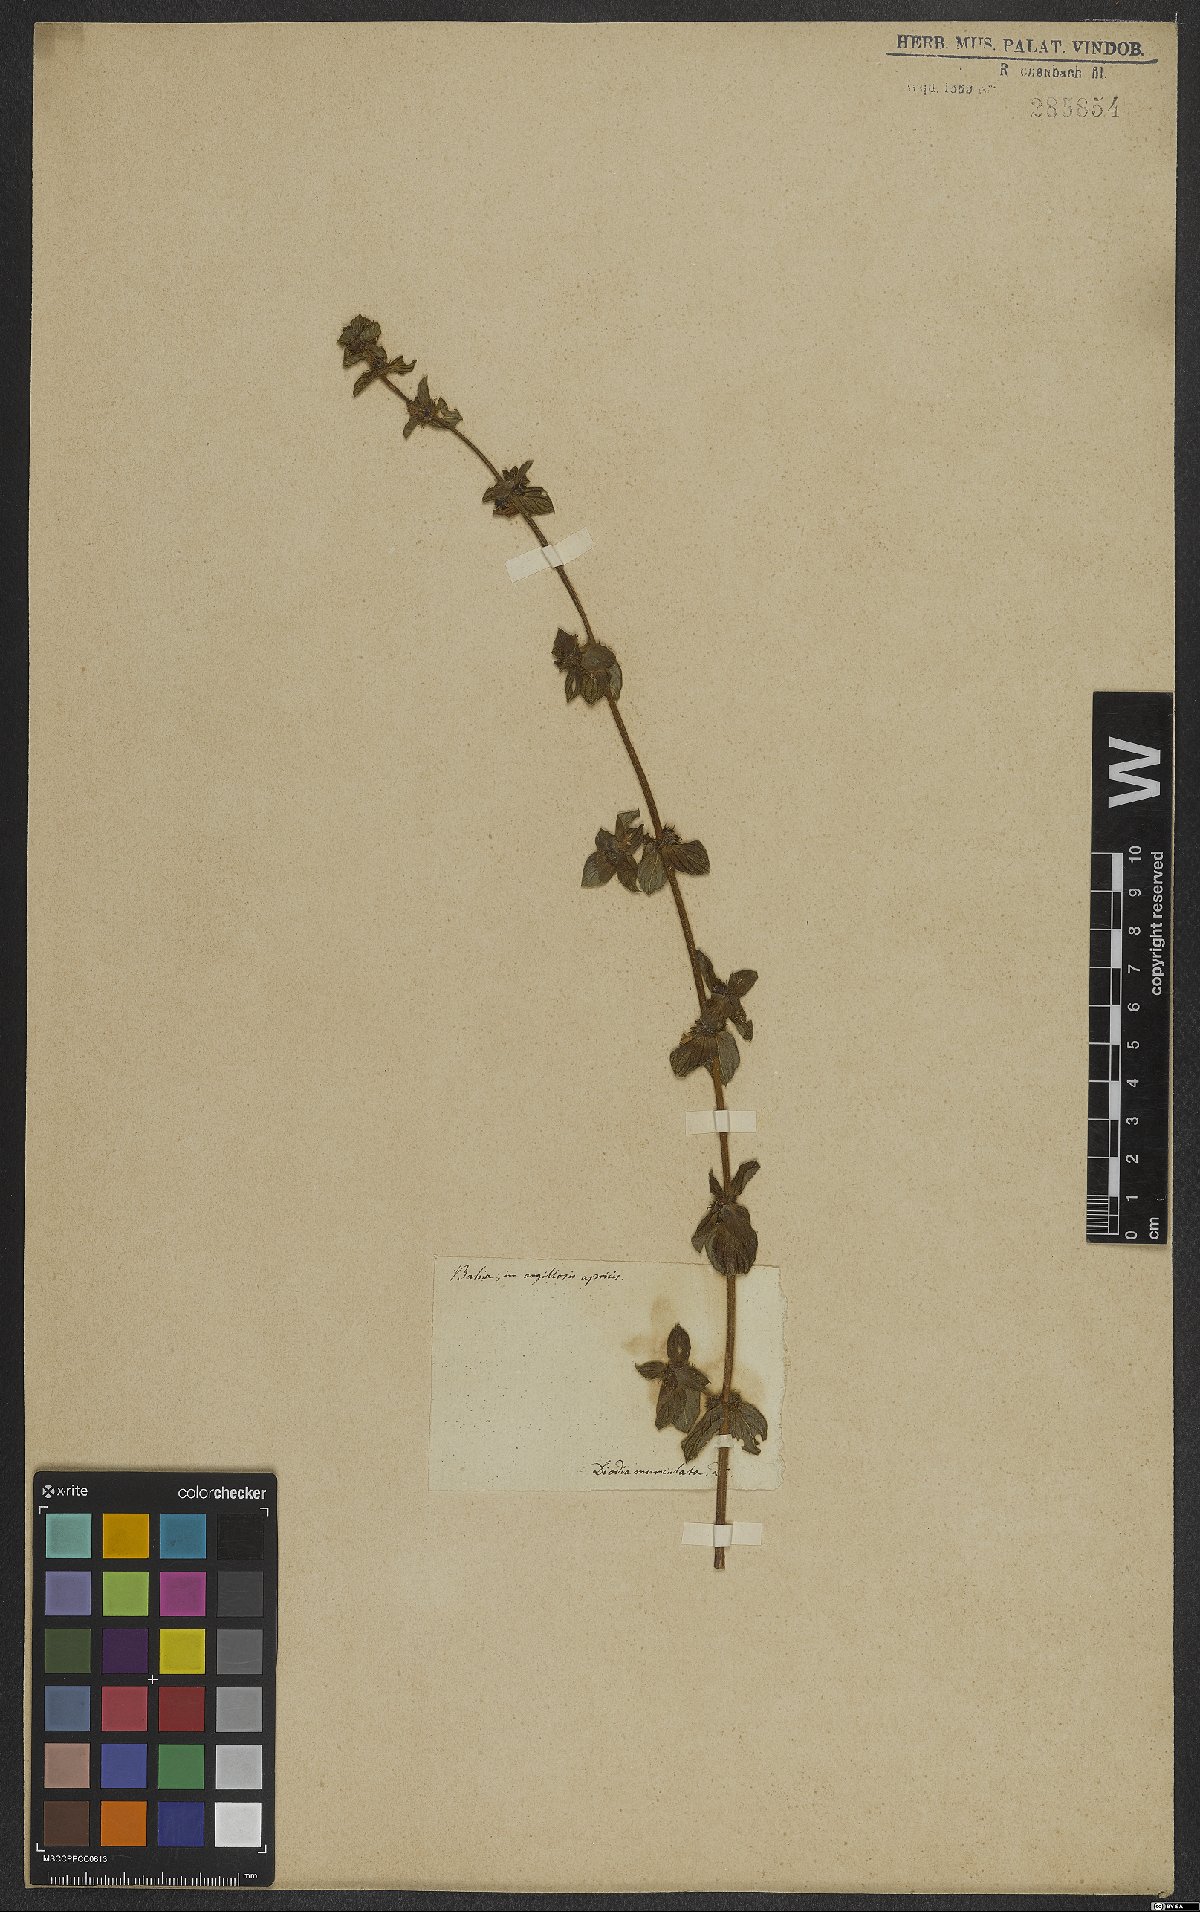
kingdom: Plantae
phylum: Tracheophyta
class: Magnoliopsida
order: Gentianales
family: Rubiaceae
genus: Hexasepalum
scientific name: Hexasepalum radulum
